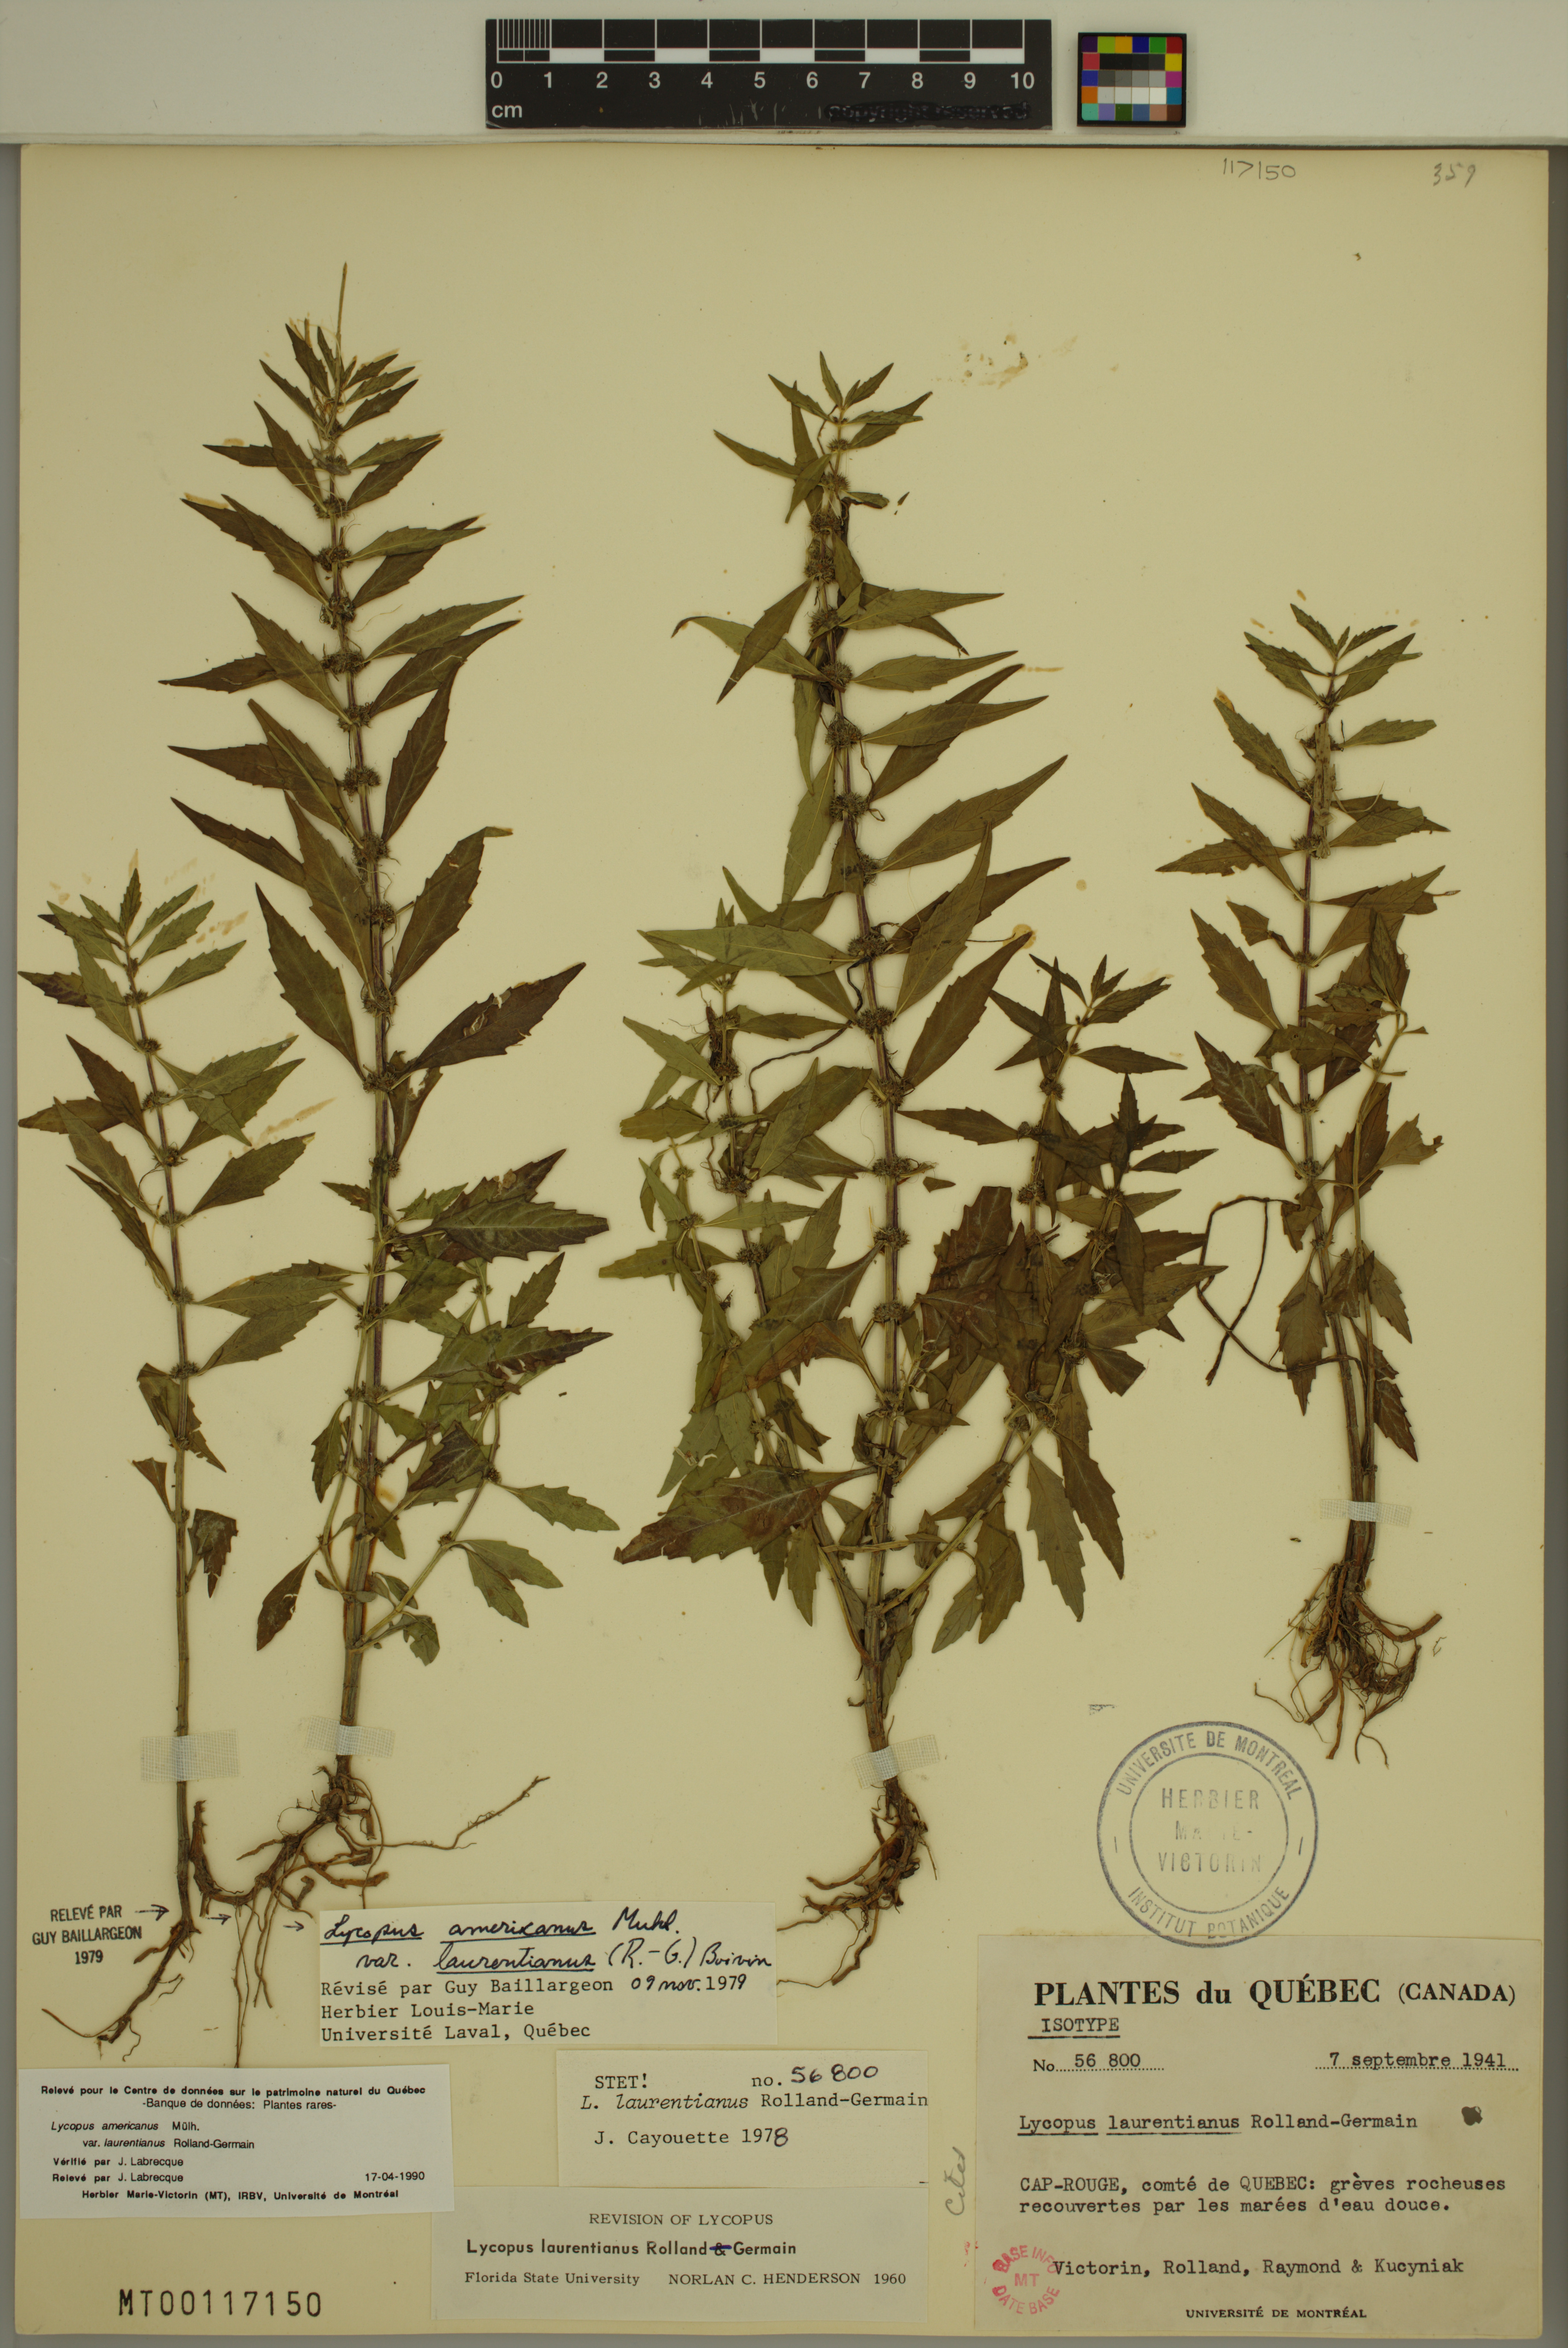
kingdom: Plantae
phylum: Tracheophyta
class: Magnoliopsida
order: Lamiales
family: Lamiaceae
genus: Lycopus
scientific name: Lycopus americanus
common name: American bugleweed
